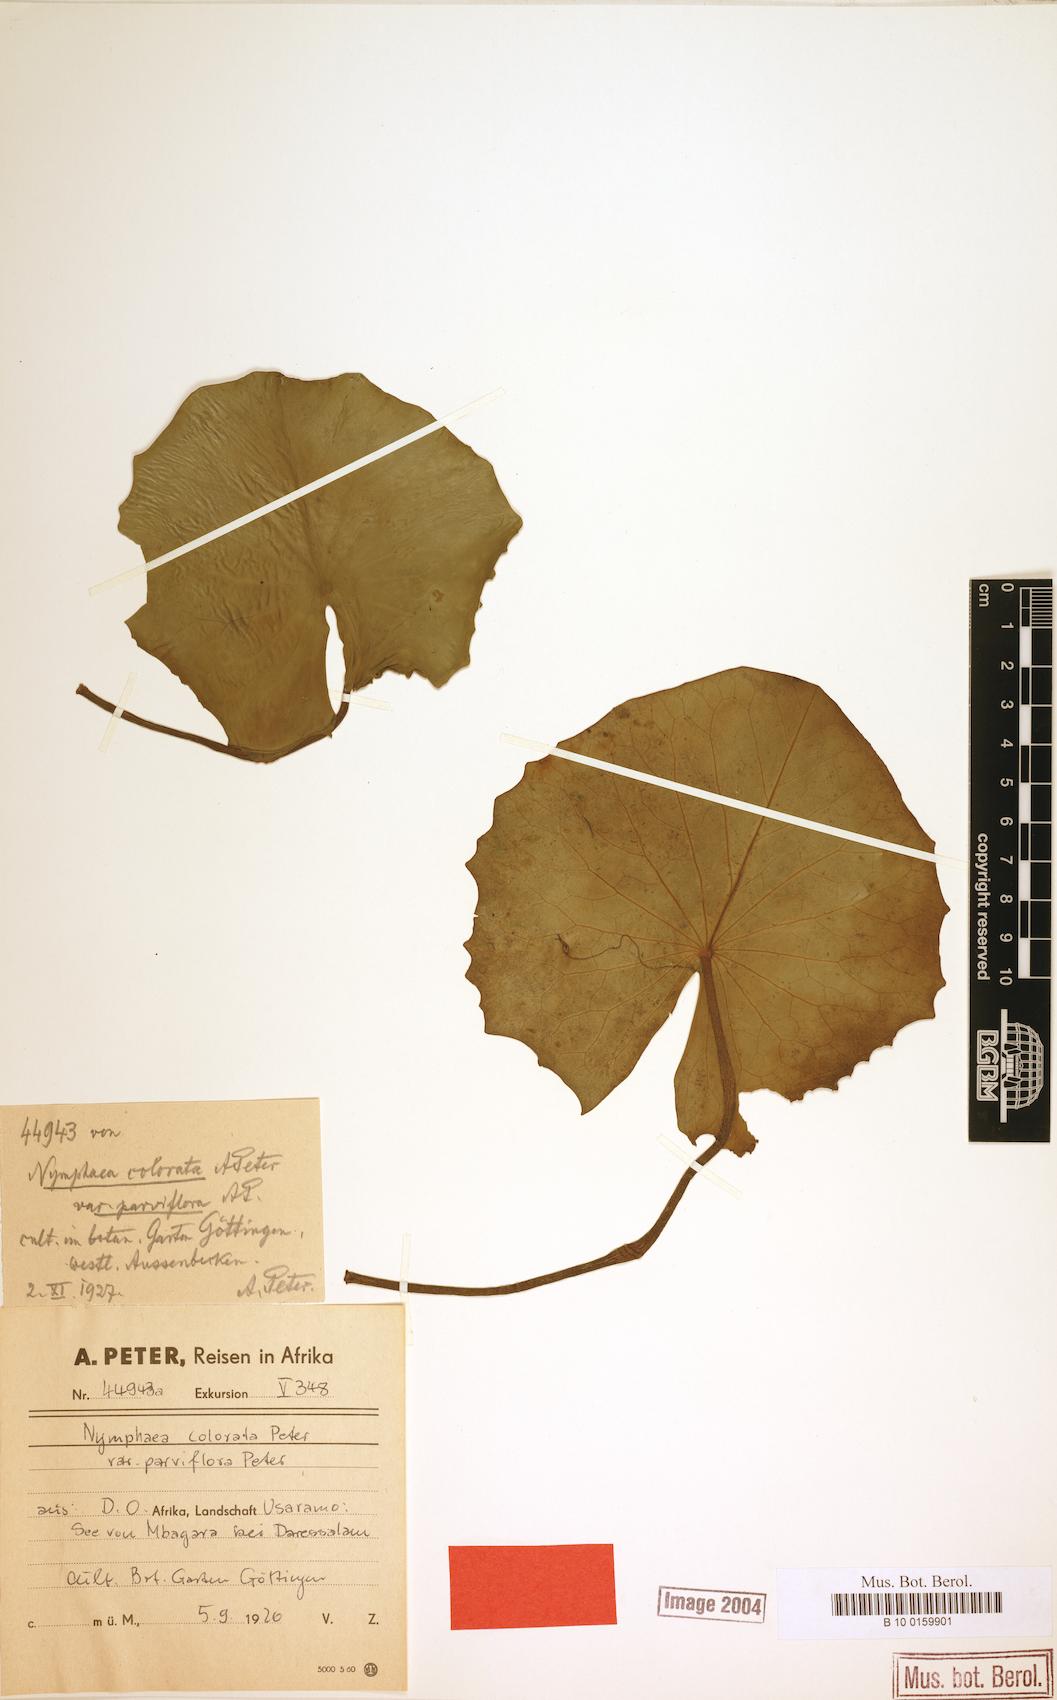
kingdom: Plantae
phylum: Tracheophyta
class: Magnoliopsida
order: Nymphaeales
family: Nymphaeaceae
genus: Nymphaea
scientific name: Nymphaea nouchali
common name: Blue lotus
